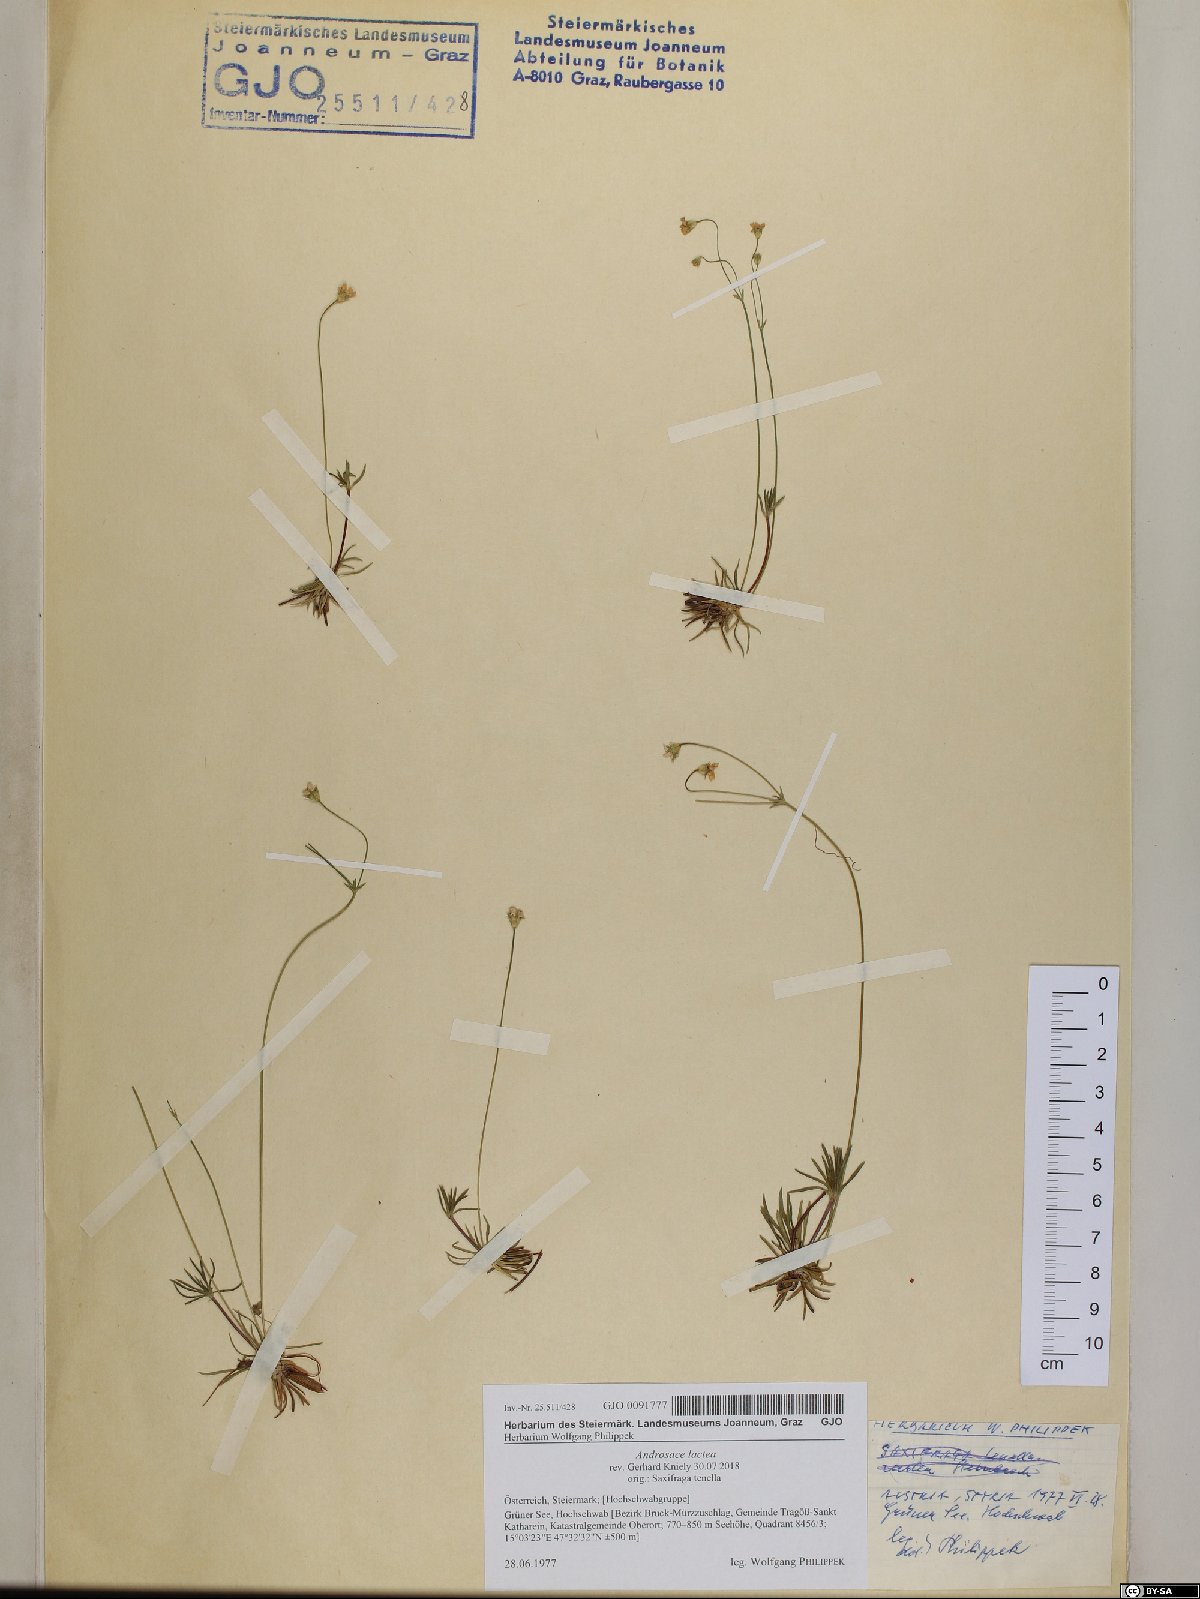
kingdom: Plantae
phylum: Tracheophyta
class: Magnoliopsida
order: Ericales
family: Primulaceae
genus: Androsace
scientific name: Androsace lactea
